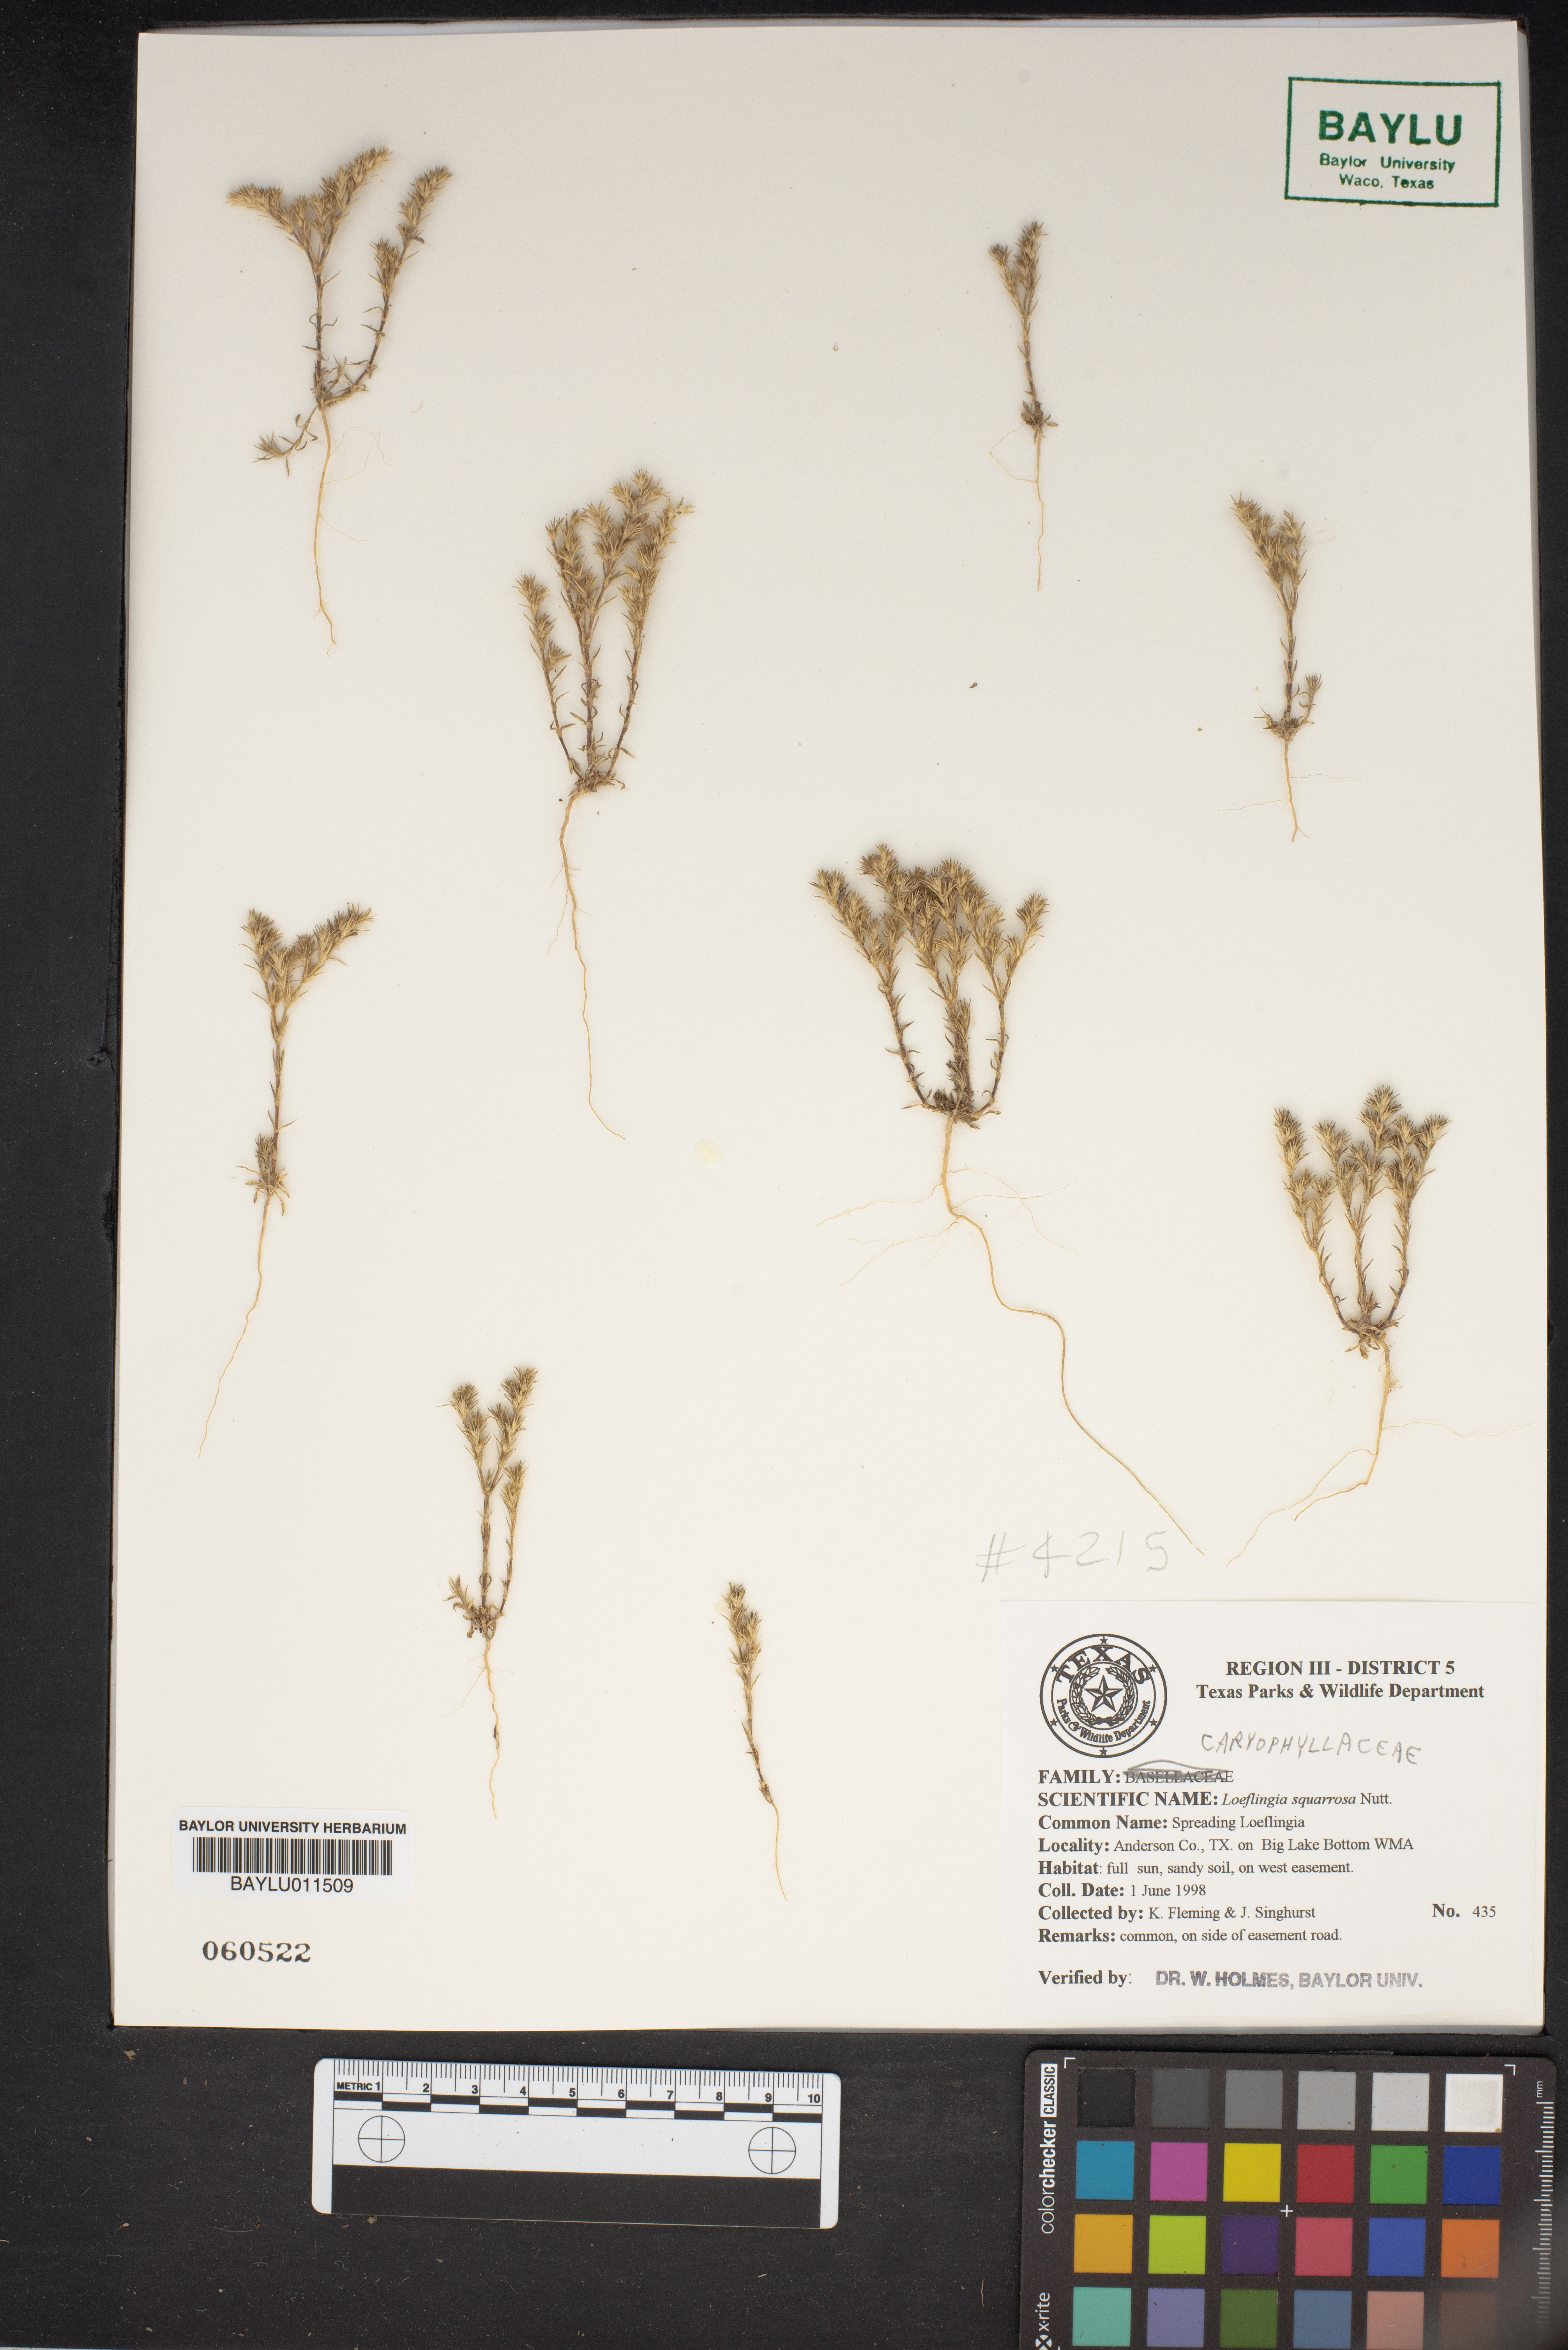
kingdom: Plantae
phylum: Tracheophyta
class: Magnoliopsida
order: Caryophyllales
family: Caryophyllaceae
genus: Loeflingia
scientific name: Loeflingia squarrosa
